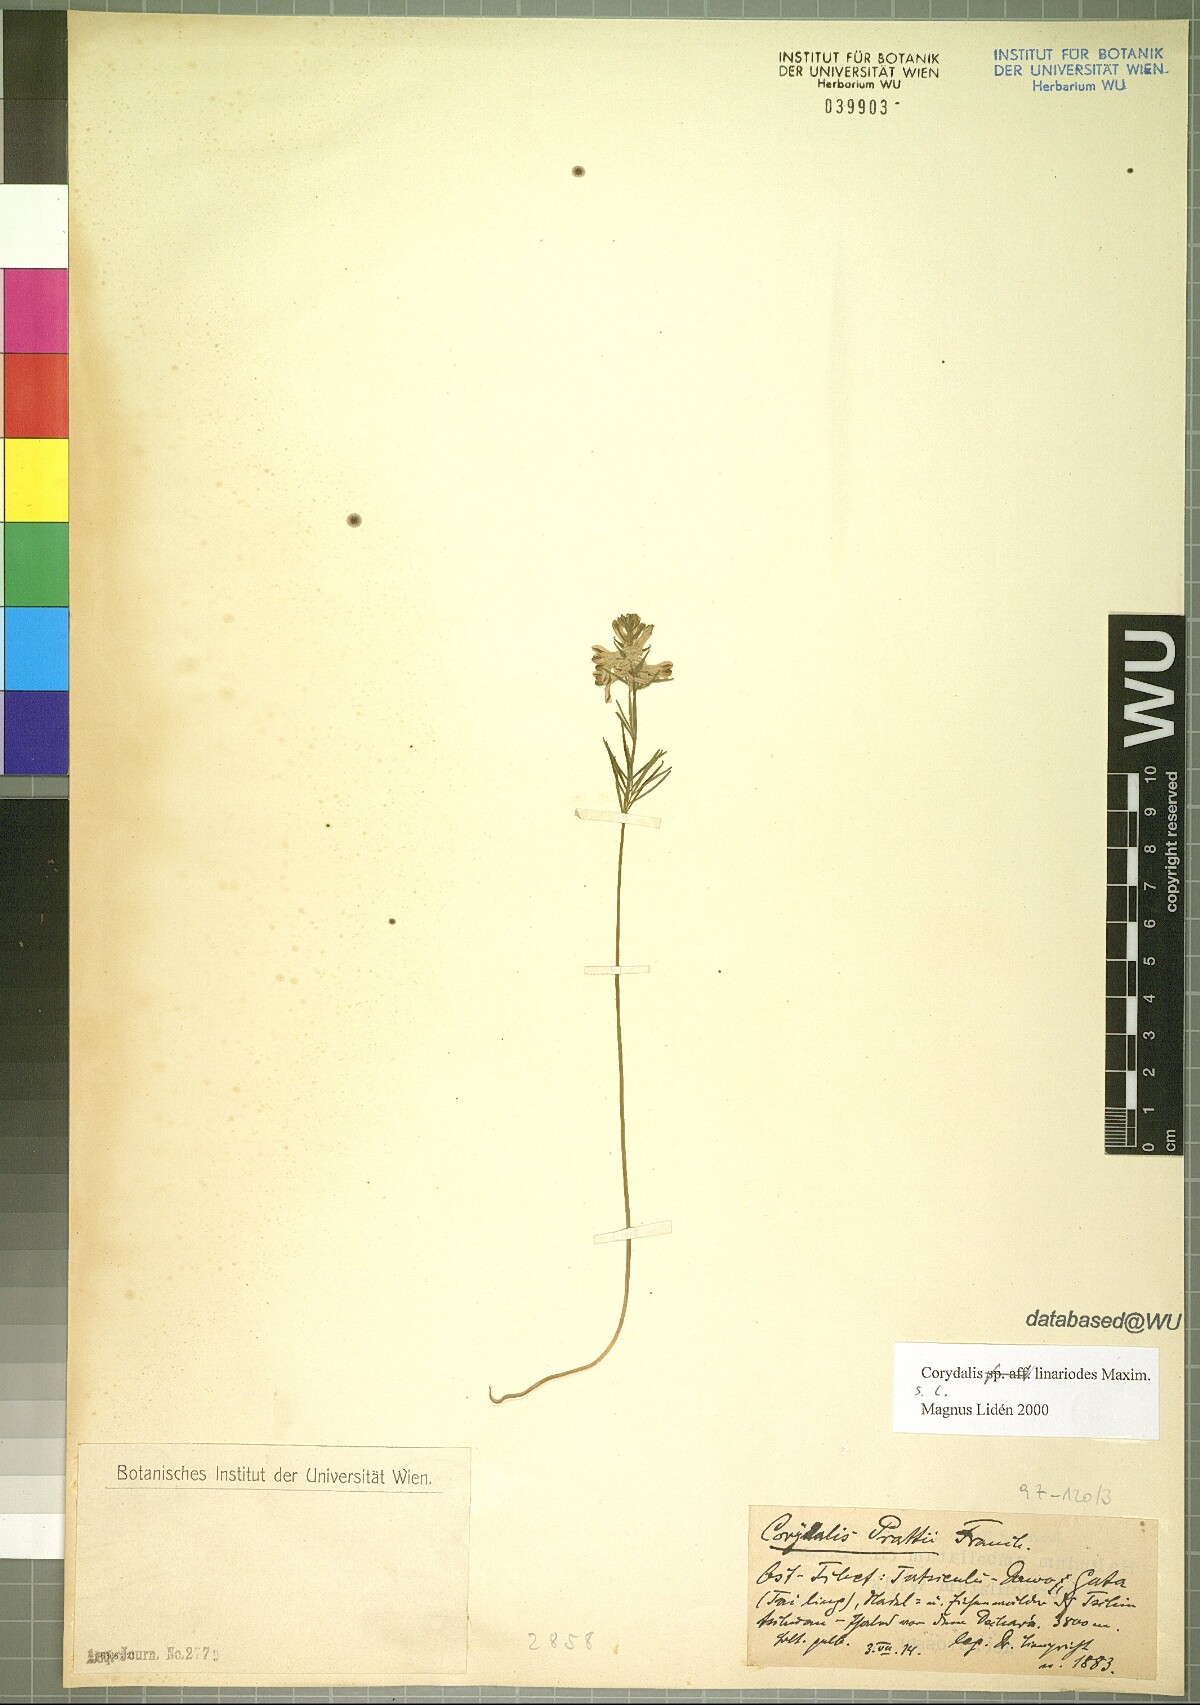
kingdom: Plantae
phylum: Tracheophyta
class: Magnoliopsida
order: Ranunculales
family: Papaveraceae
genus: Corydalis
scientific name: Corydalis linarioides
